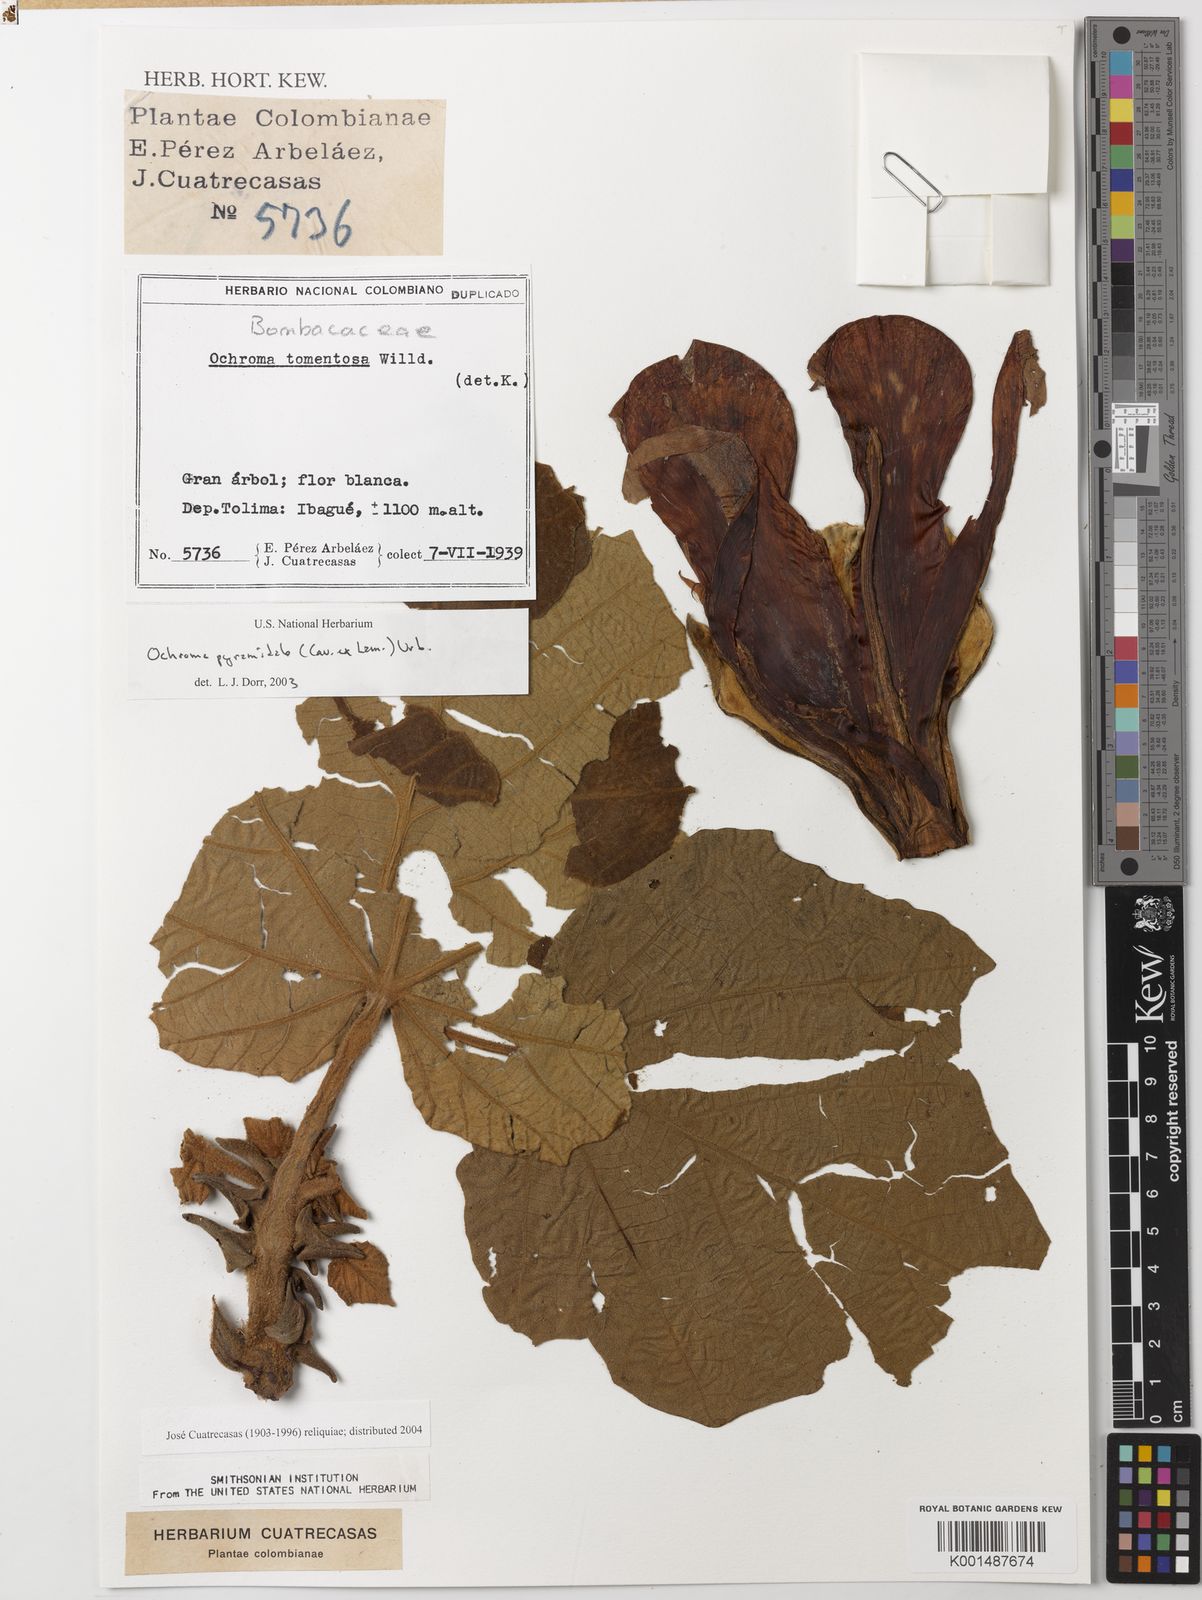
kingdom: Plantae
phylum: Tracheophyta
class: Magnoliopsida
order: Malvales
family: Malvaceae
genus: Ochroma
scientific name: Ochroma pyramidale
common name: Balsa
